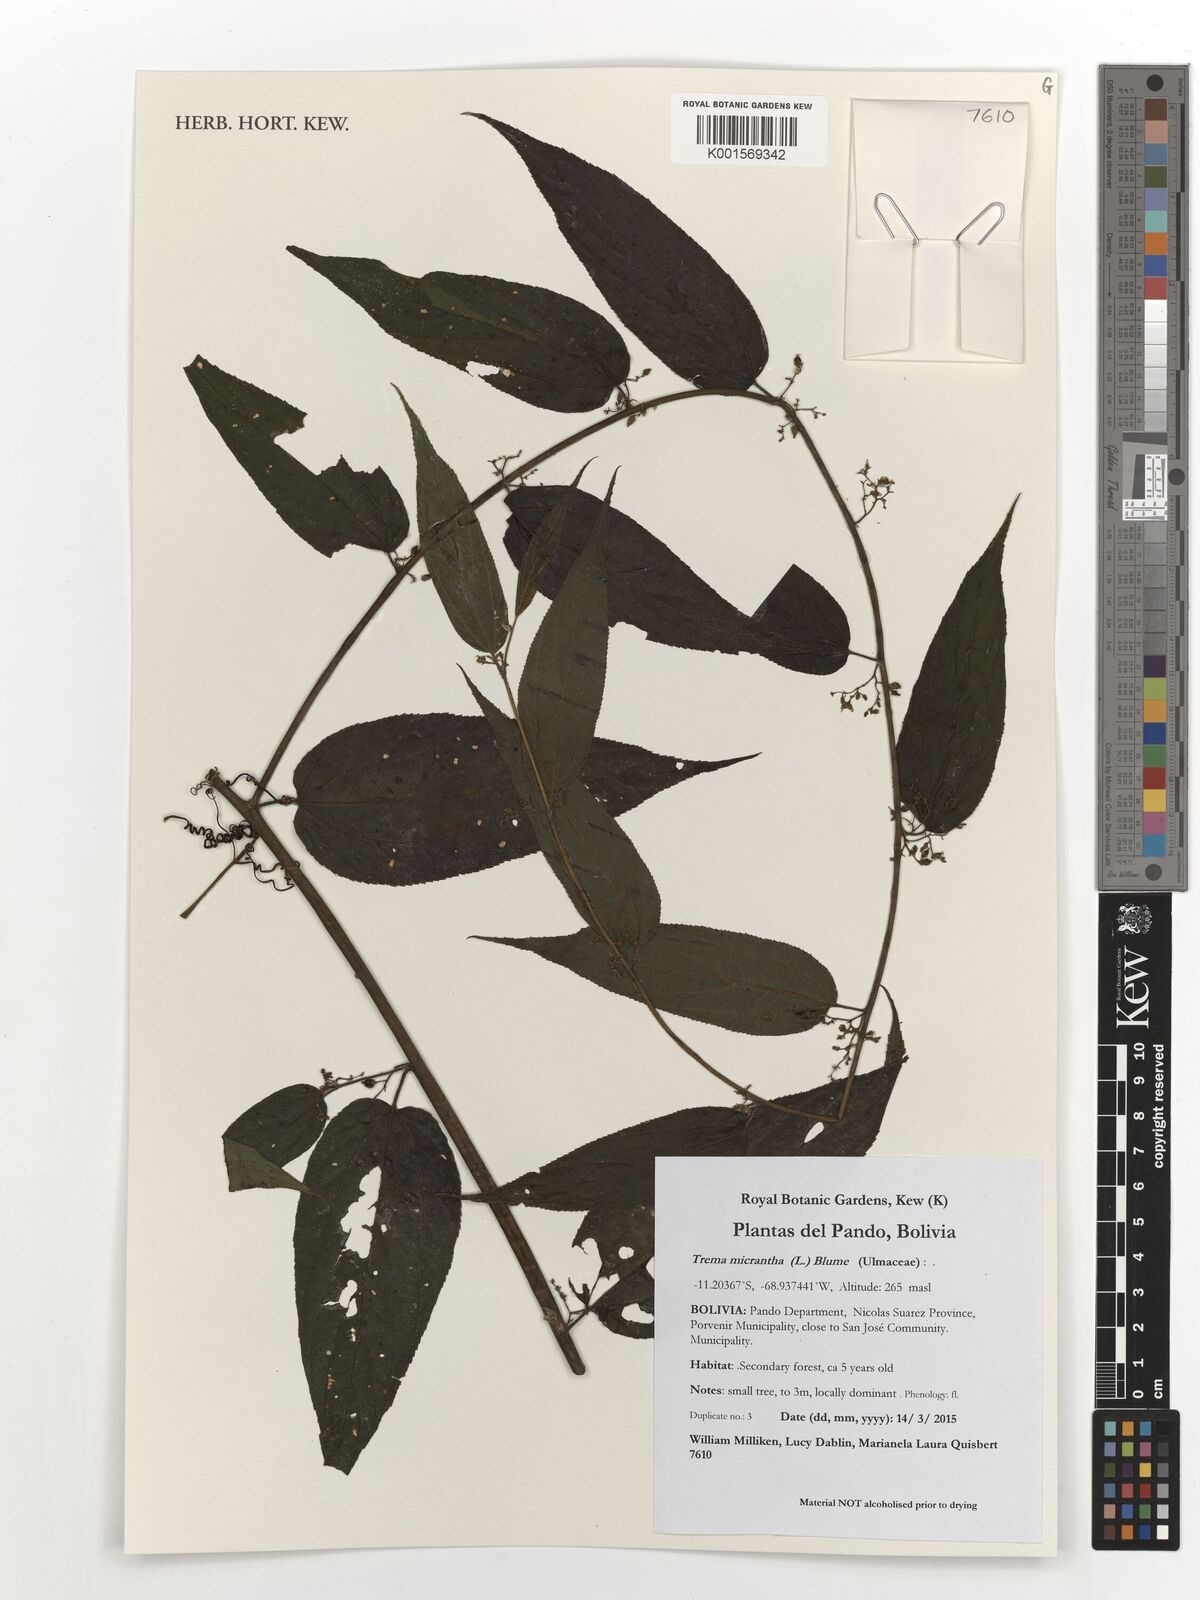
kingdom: Plantae
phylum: Tracheophyta
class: Magnoliopsida
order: Rosales
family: Cannabaceae
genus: Trema
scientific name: Trema micranthum
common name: Jamaican nettletree
